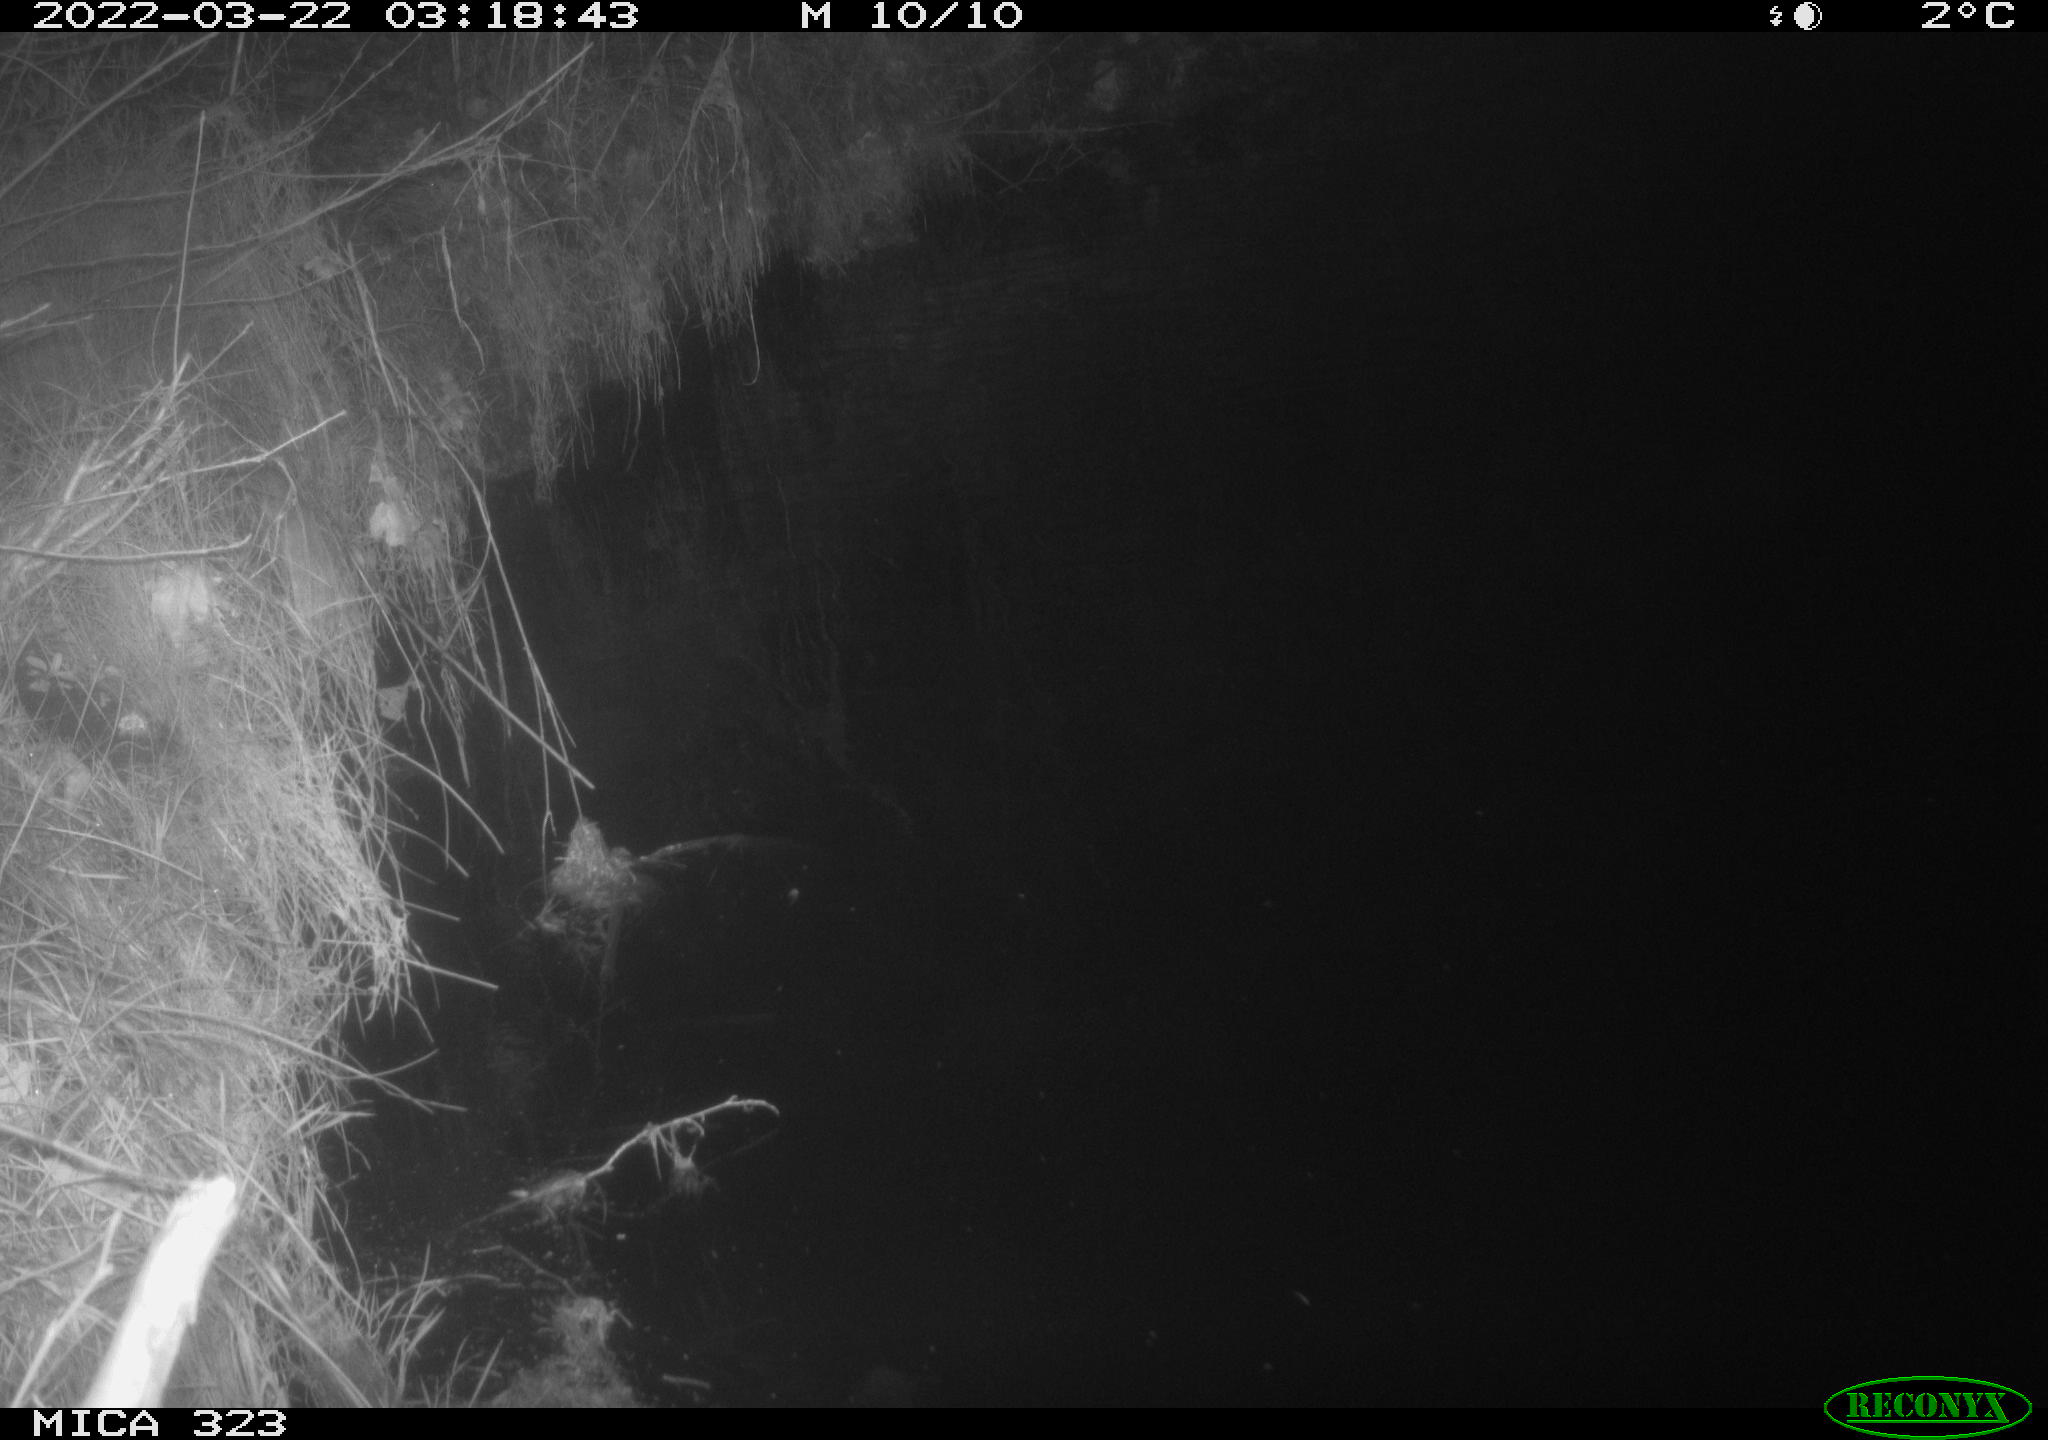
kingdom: Animalia
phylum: Chordata
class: Aves
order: Anseriformes
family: Anatidae
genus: Anas
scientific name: Anas platyrhynchos
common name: Mallard
